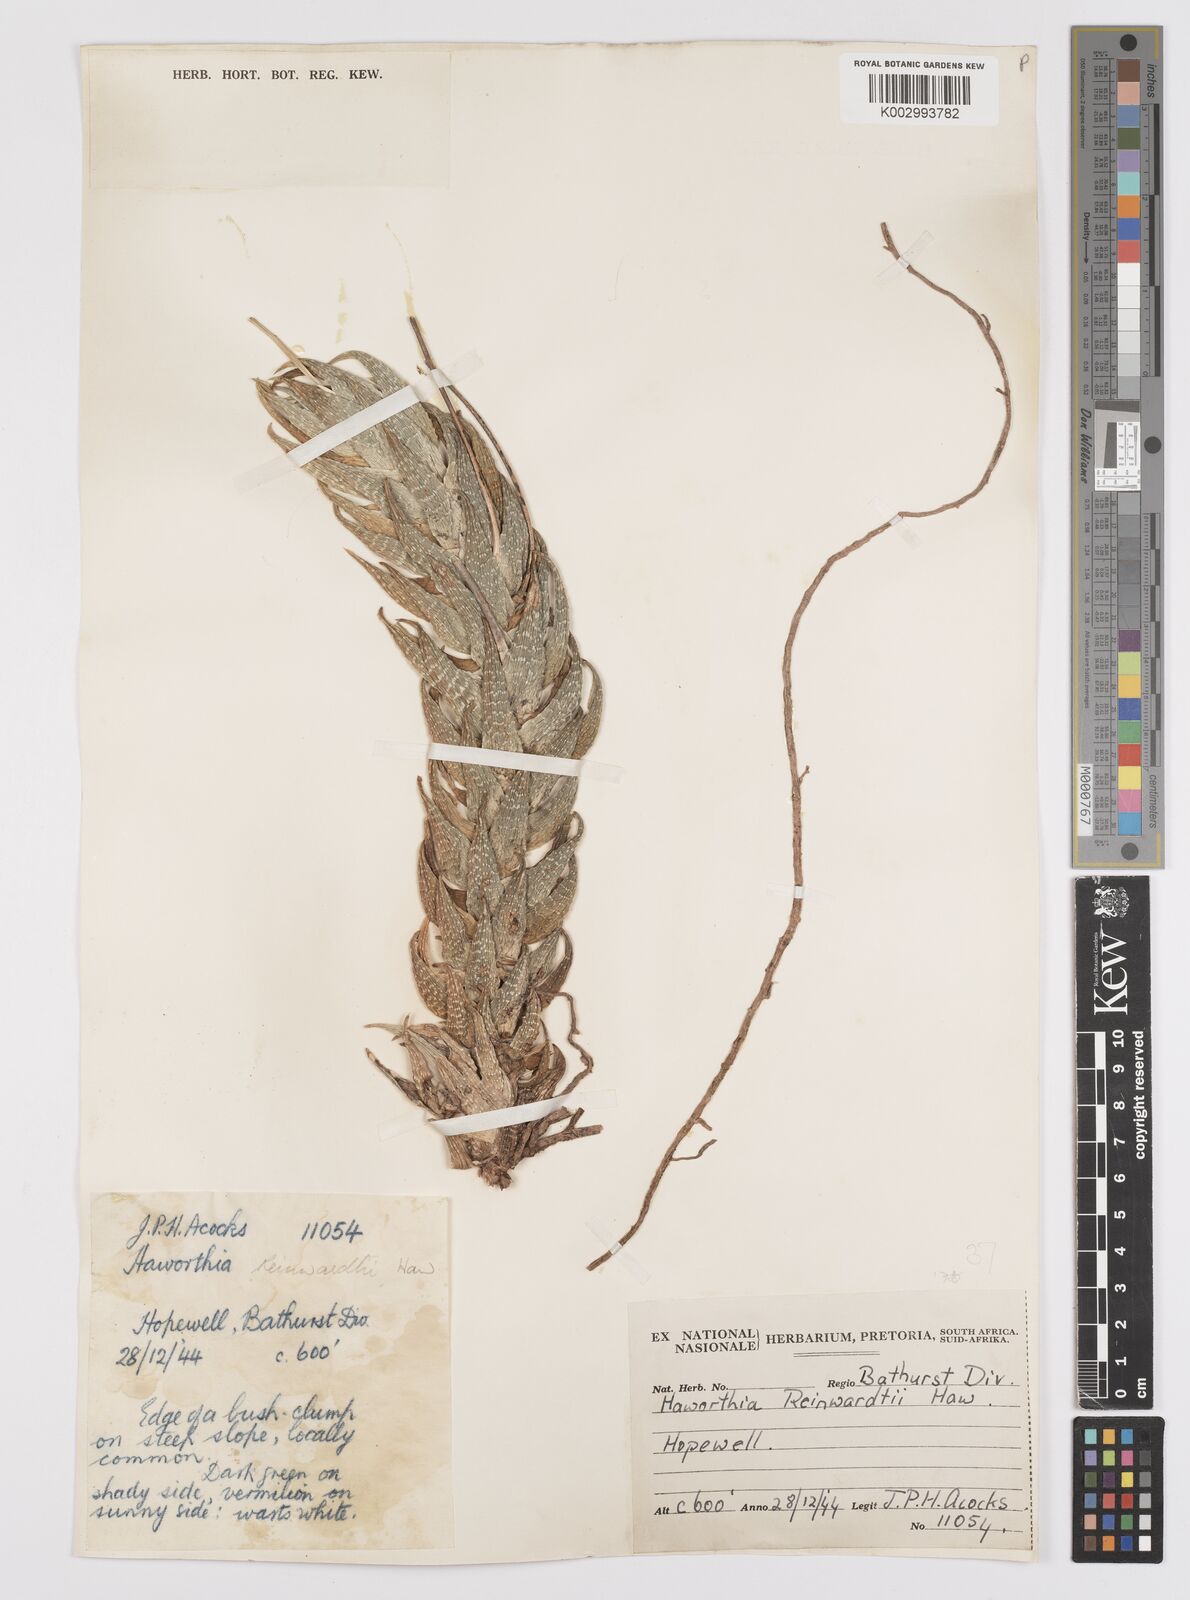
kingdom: Plantae
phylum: Tracheophyta
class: Liliopsida
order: Asparagales
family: Asphodelaceae
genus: Haworthiopsis
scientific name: Haworthiopsis reinwardtii
